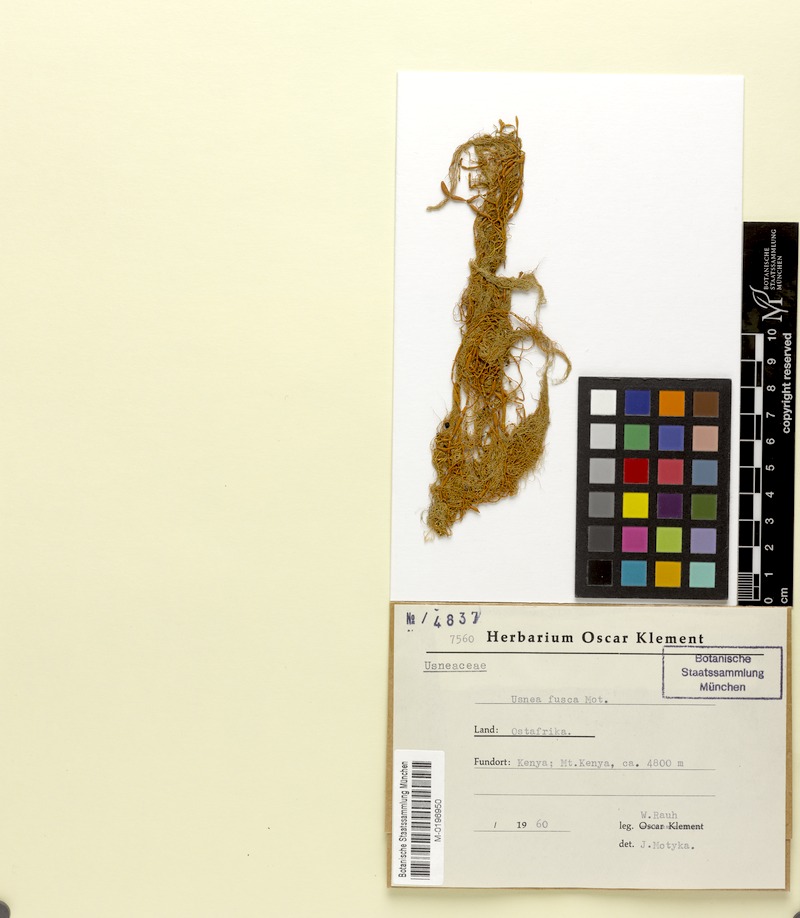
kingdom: Fungi
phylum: Ascomycota
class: Lecanoromycetes
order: Lecanorales
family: Parmeliaceae
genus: Usnea
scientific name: Usnea fusca
